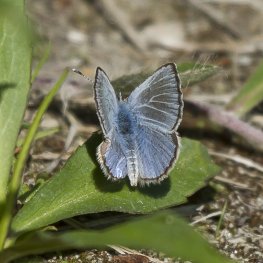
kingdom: Animalia
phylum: Arthropoda
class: Insecta
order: Lepidoptera
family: Lycaenidae
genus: Glaucopsyche
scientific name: Glaucopsyche lygdamus
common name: Silvery Blue
